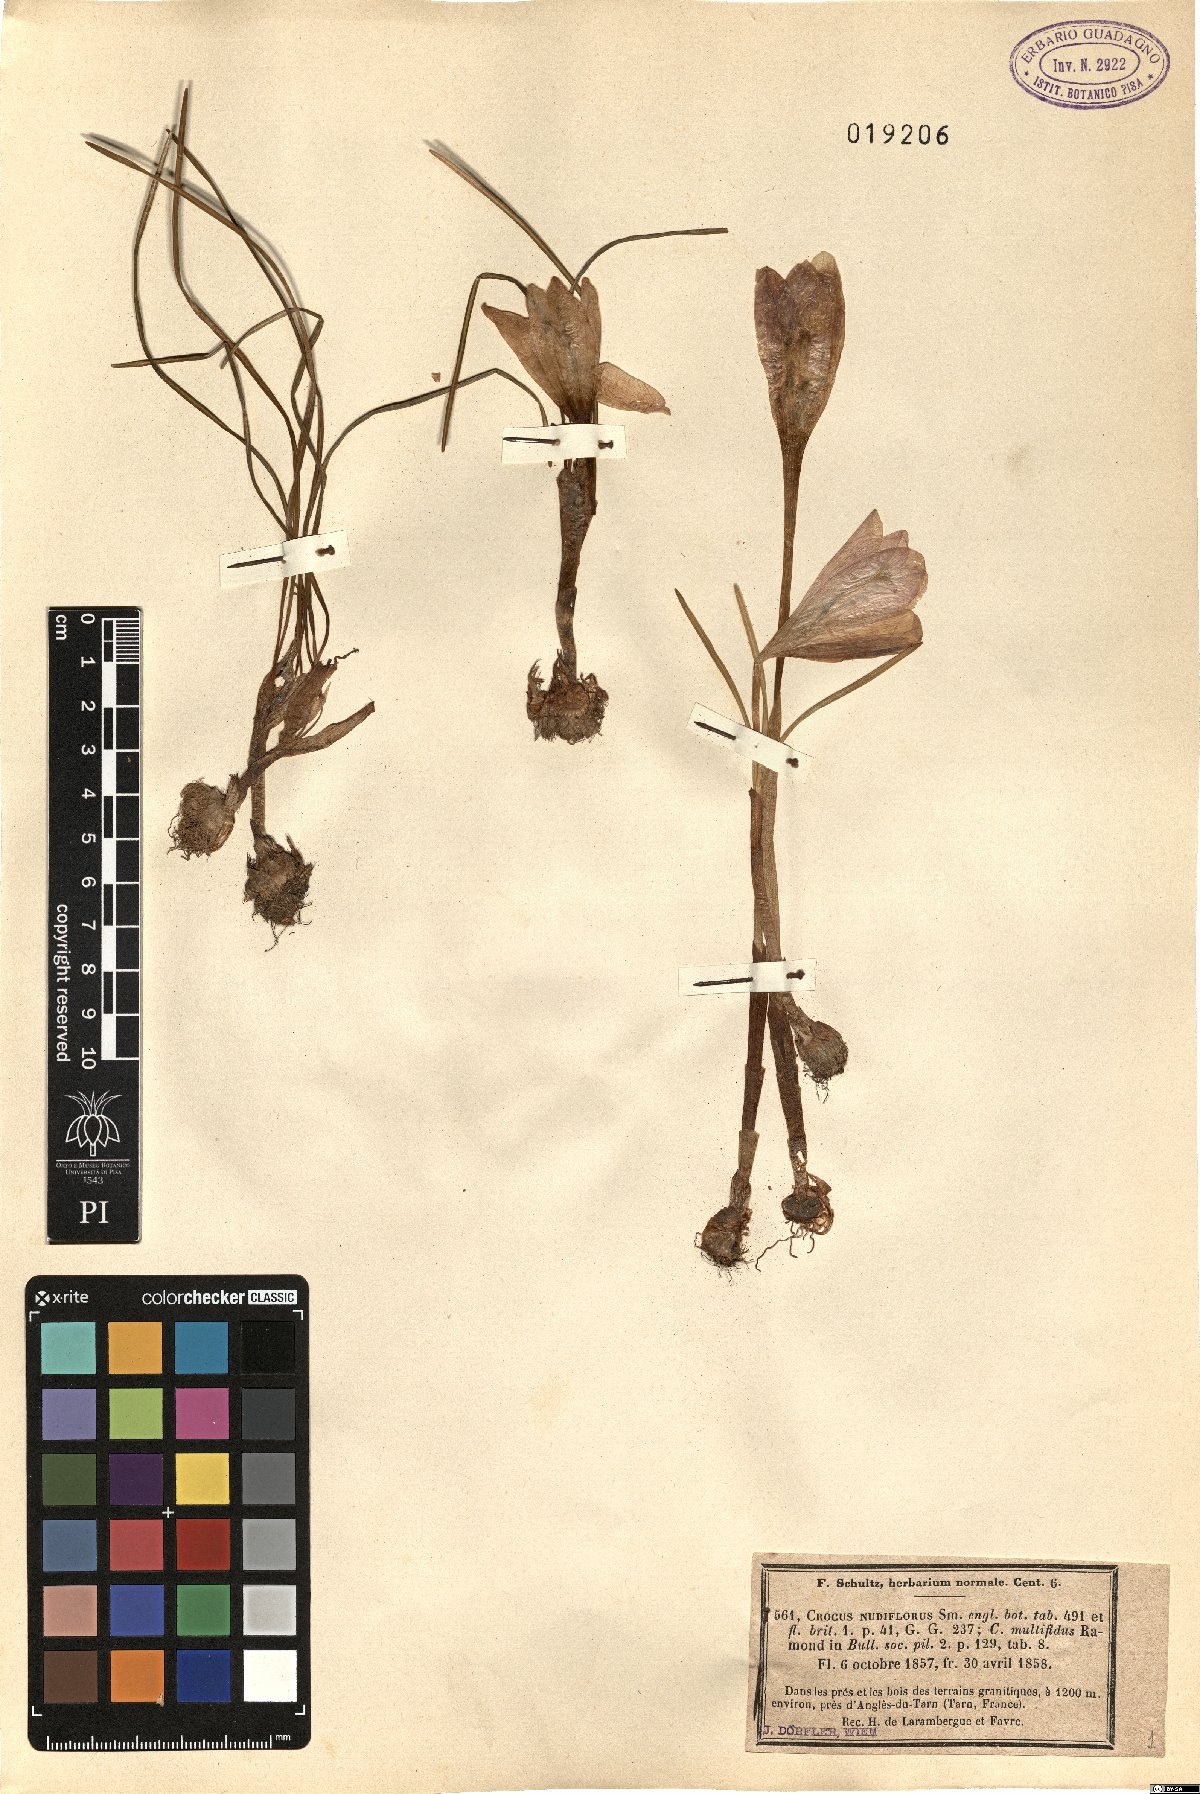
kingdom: Plantae
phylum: Tracheophyta
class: Liliopsida
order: Asparagales
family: Iridaceae
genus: Crocus
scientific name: Crocus nudiflorus
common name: Autumn crocus
